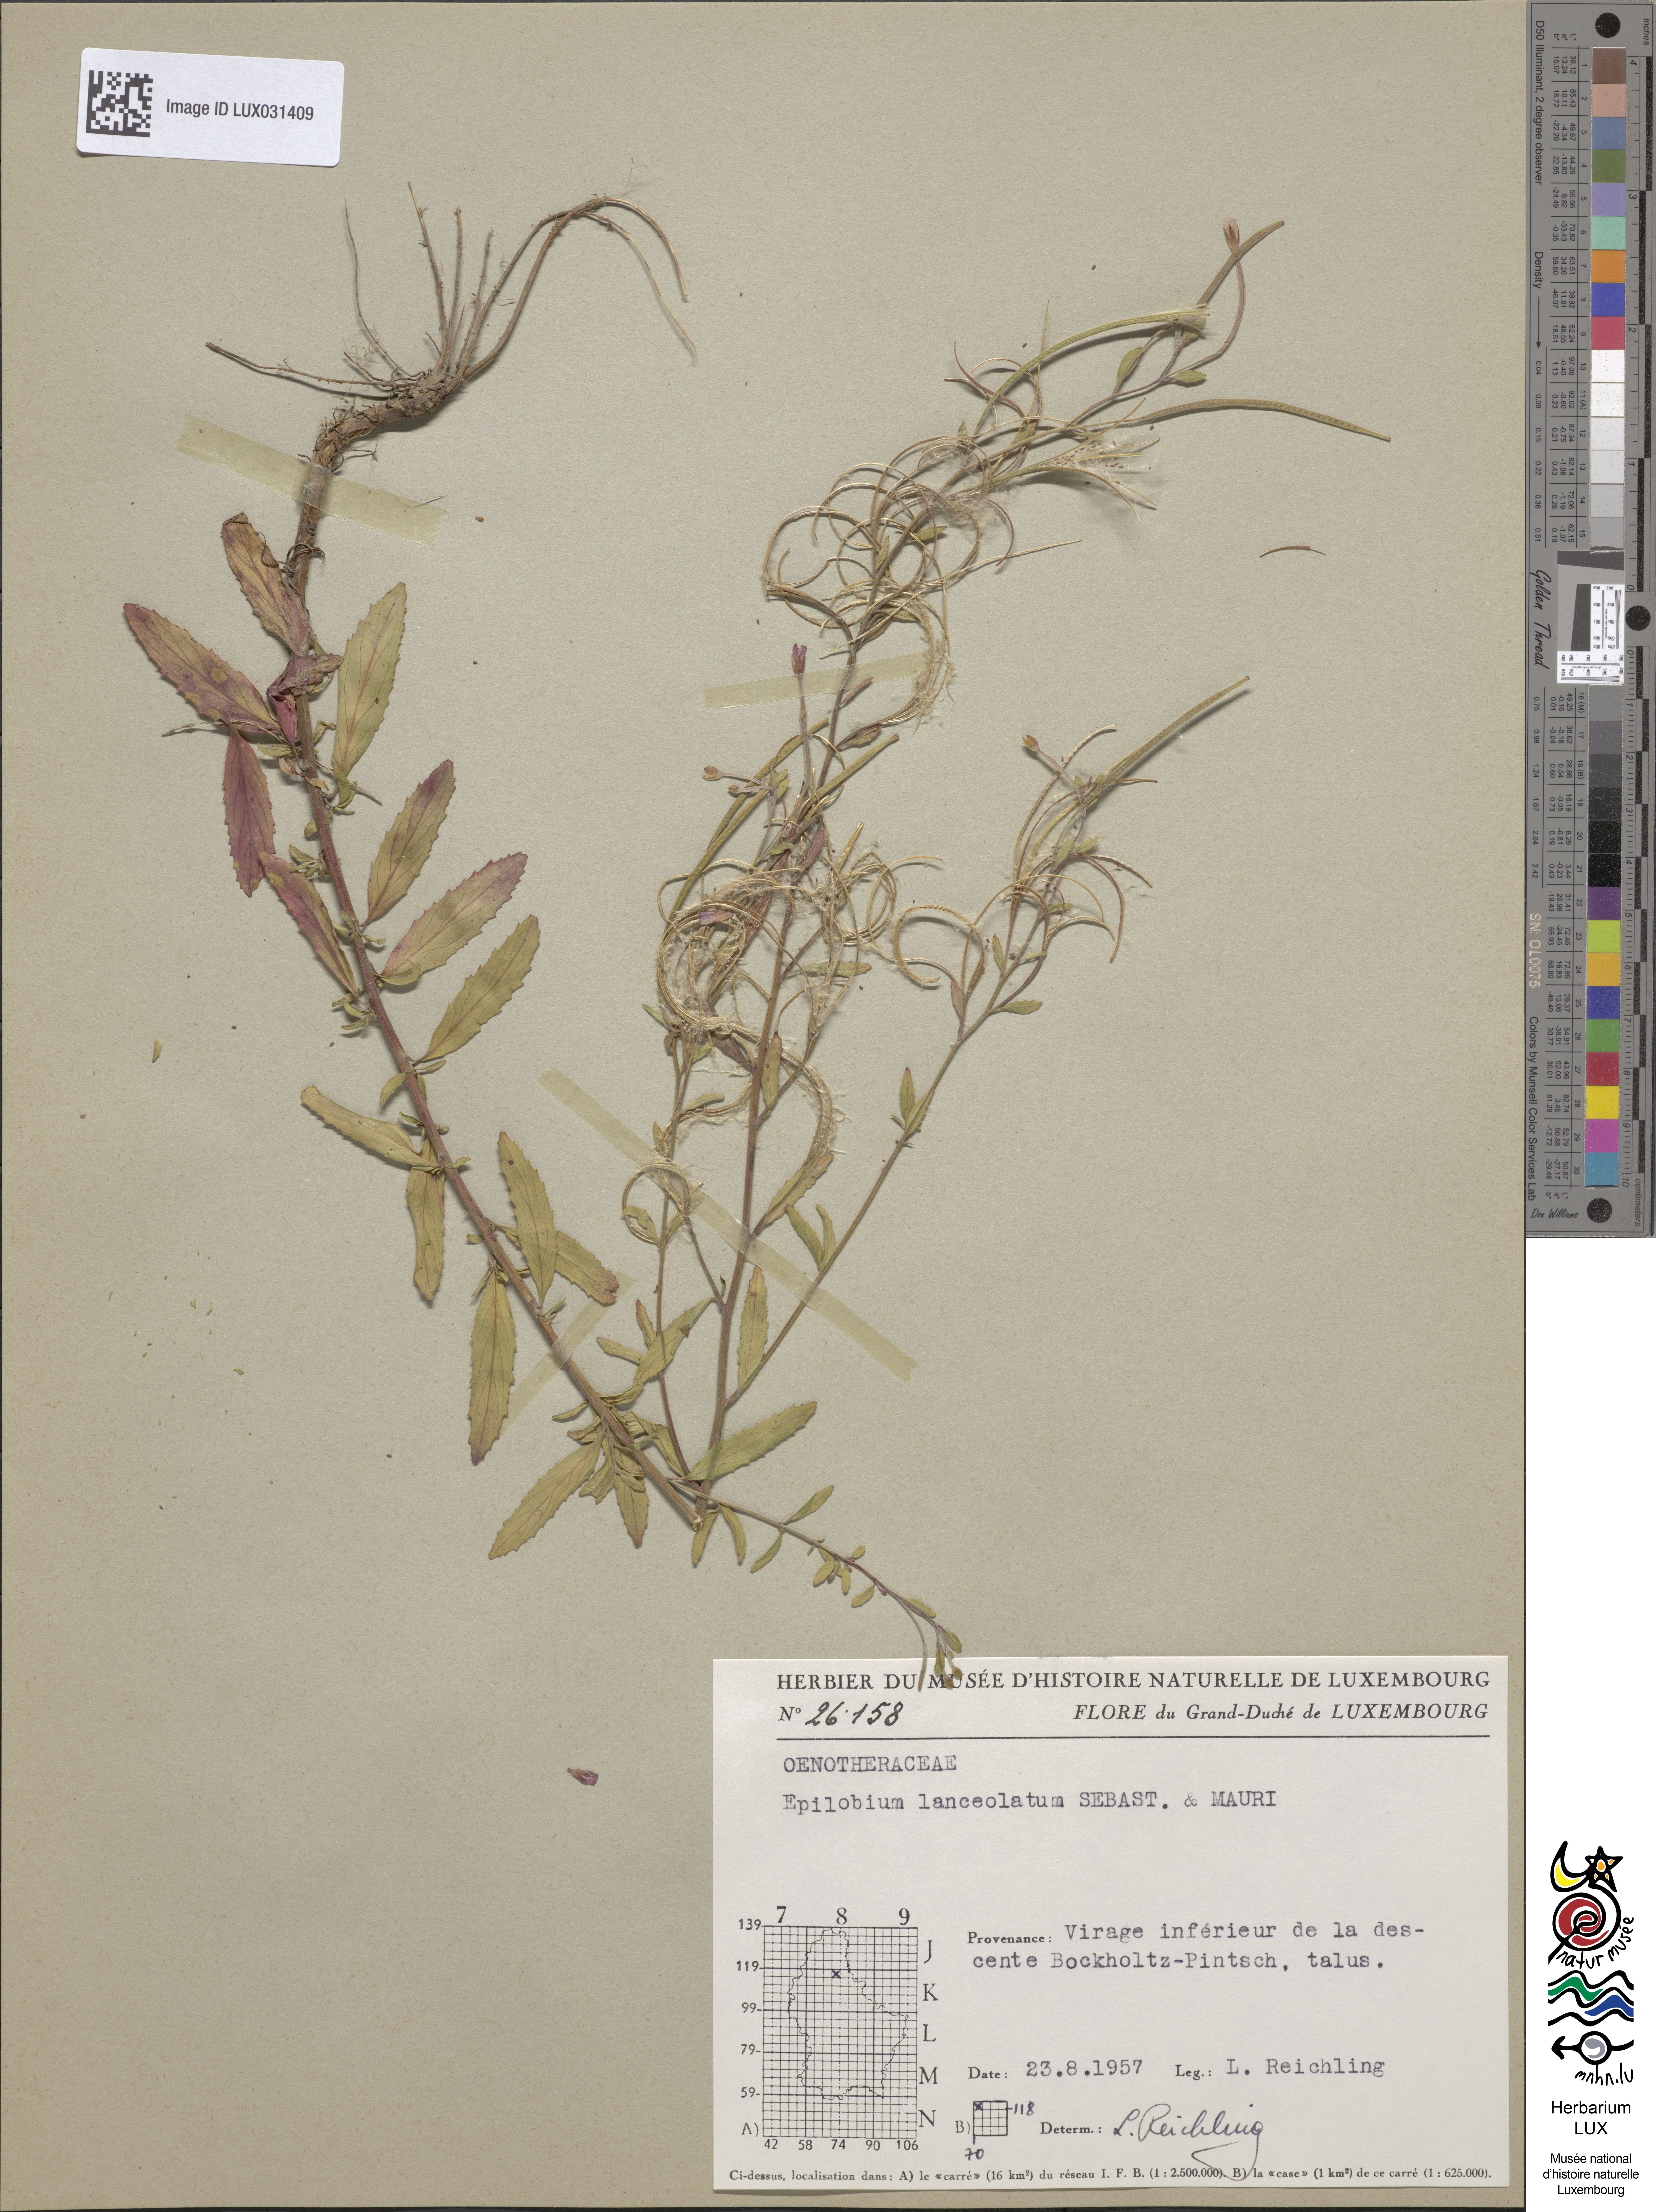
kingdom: Plantae
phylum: Tracheophyta
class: Magnoliopsida
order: Myrtales
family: Onagraceae
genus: Epilobium
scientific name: Epilobium lanceolatum
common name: Spear-leaved willowherb
